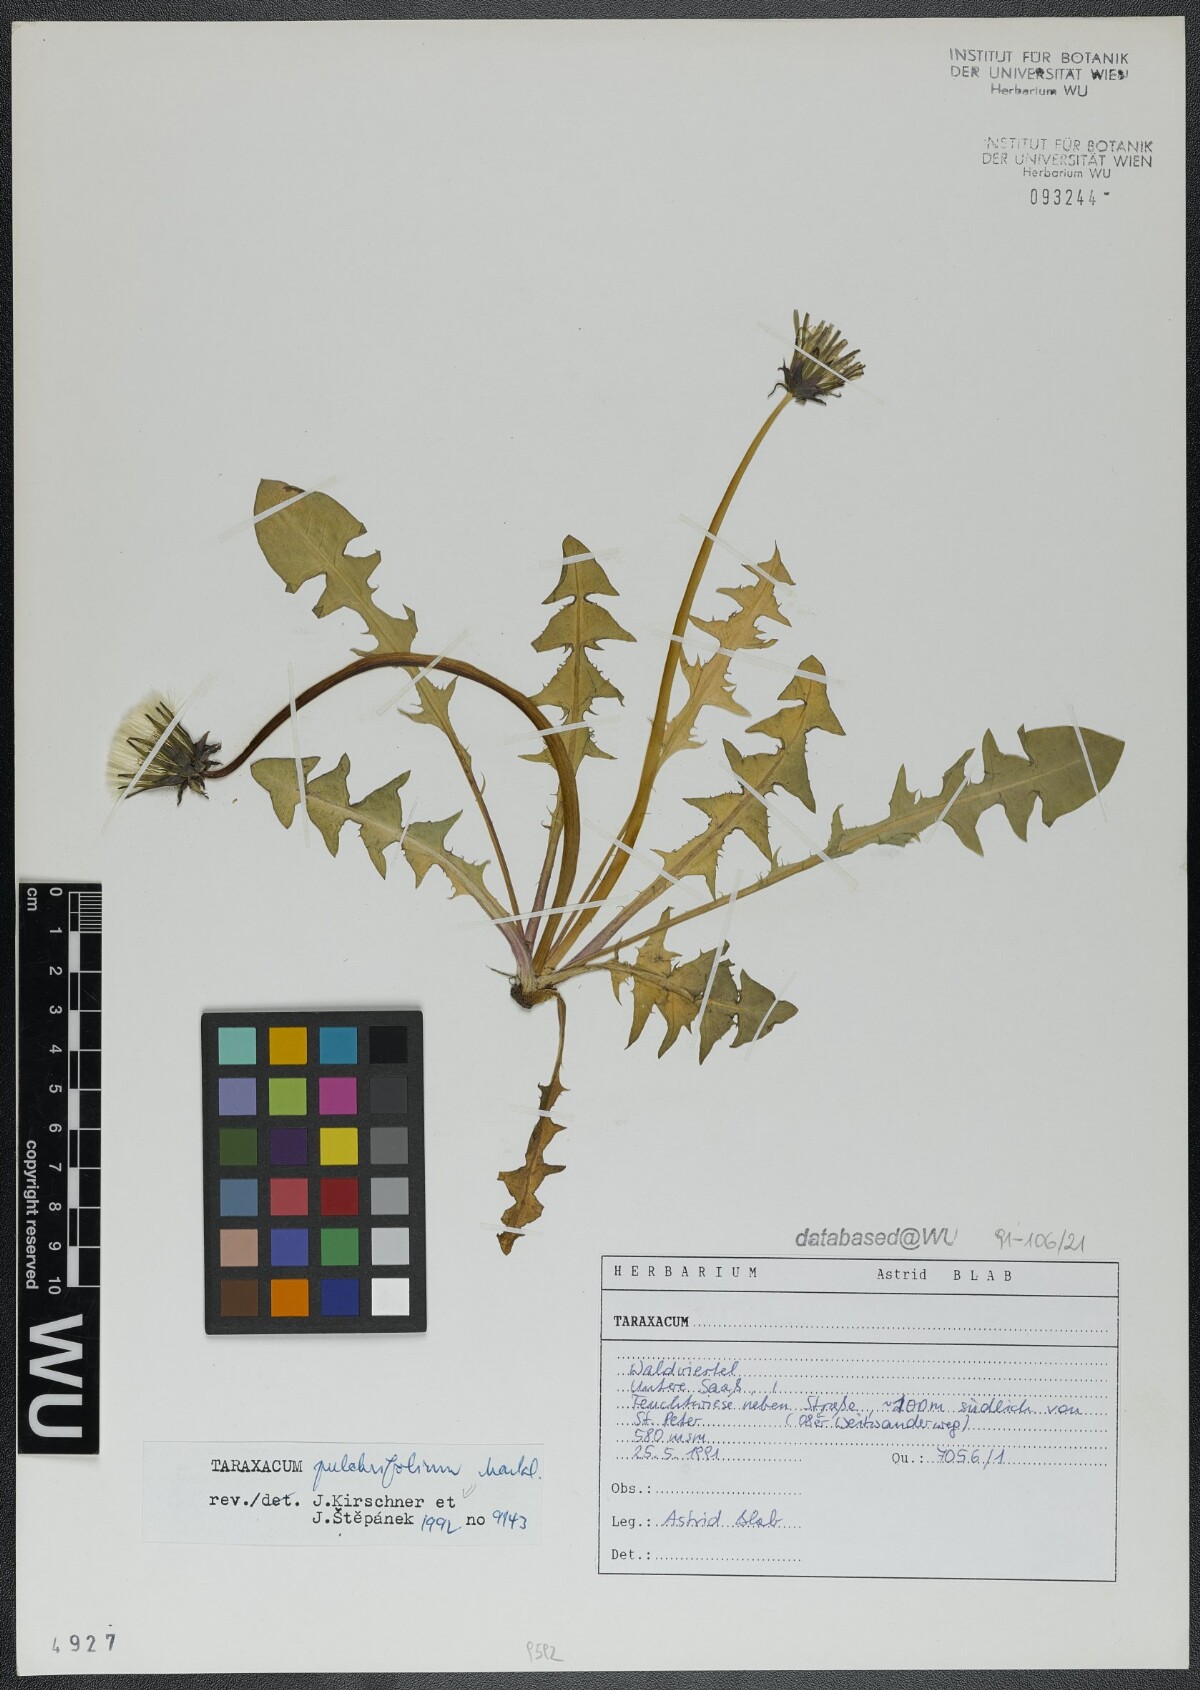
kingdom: Plantae
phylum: Tracheophyta
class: Magnoliopsida
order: Asterales
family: Asteraceae
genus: Taraxacum
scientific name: Taraxacum pulchrifolium
